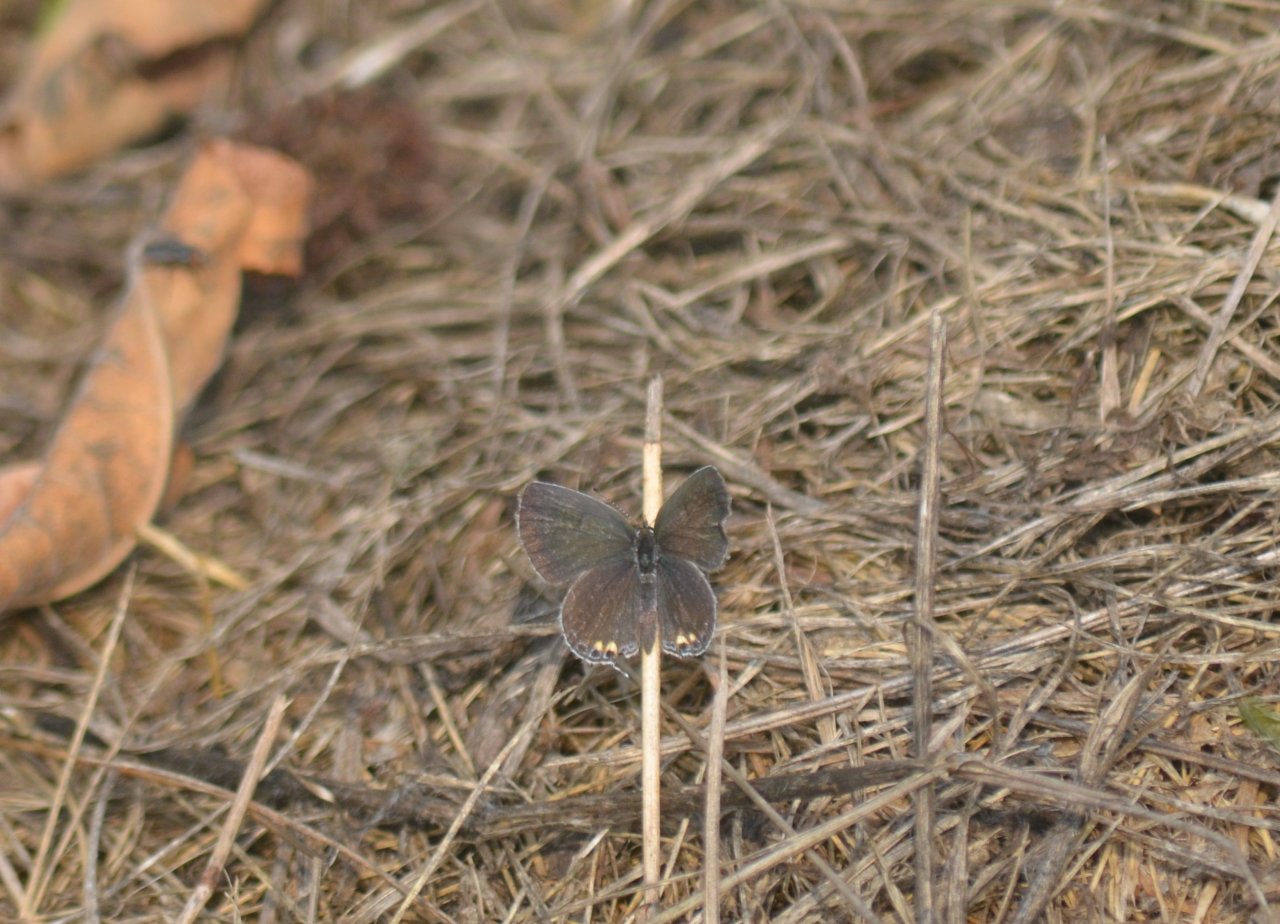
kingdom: Animalia
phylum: Arthropoda
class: Insecta
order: Lepidoptera
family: Lycaenidae
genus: Elkalyce
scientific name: Elkalyce comyntas
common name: Eastern Tailed-Blue
